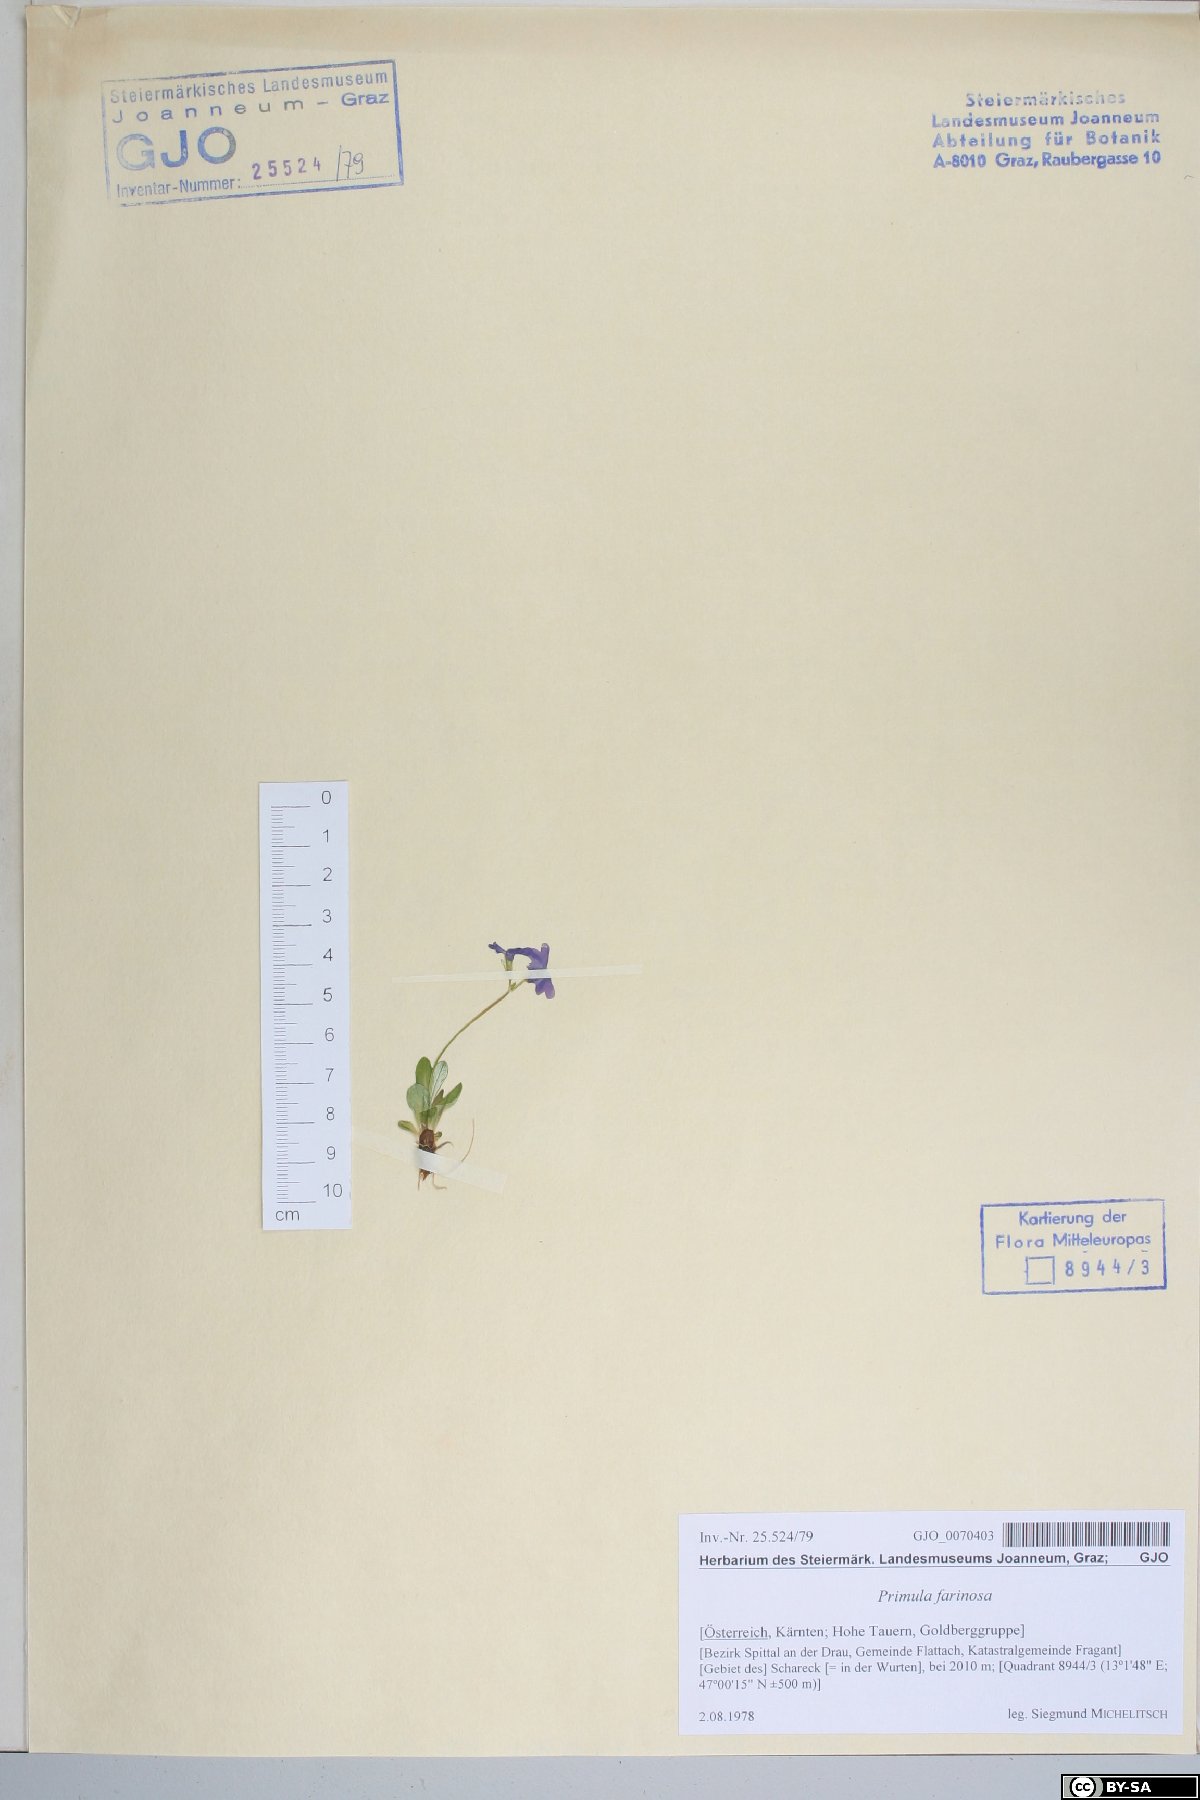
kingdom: Plantae
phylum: Tracheophyta
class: Magnoliopsida
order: Ericales
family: Primulaceae
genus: Primula
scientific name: Primula farinosa
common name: Bird's-eye primrose
